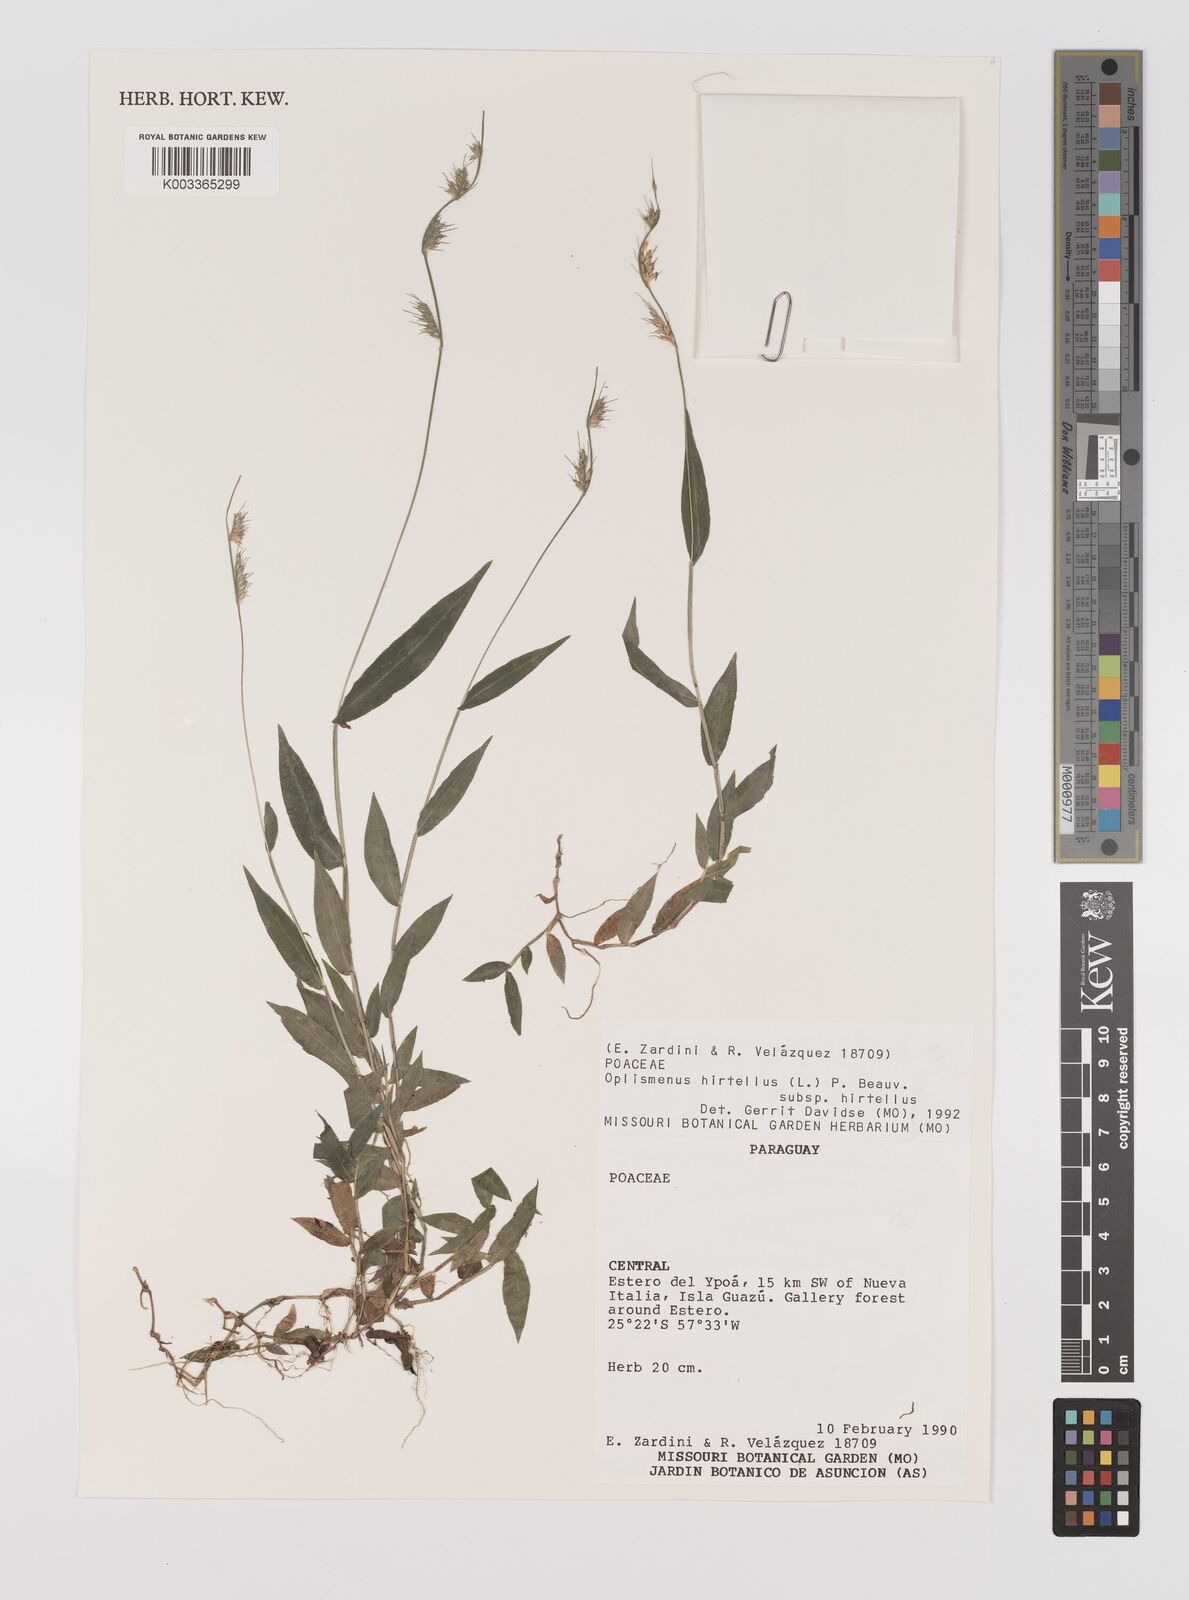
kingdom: Plantae
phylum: Tracheophyta
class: Liliopsida
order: Poales
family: Poaceae
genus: Oplismenus
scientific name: Oplismenus hirtellus
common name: Basketgrass
